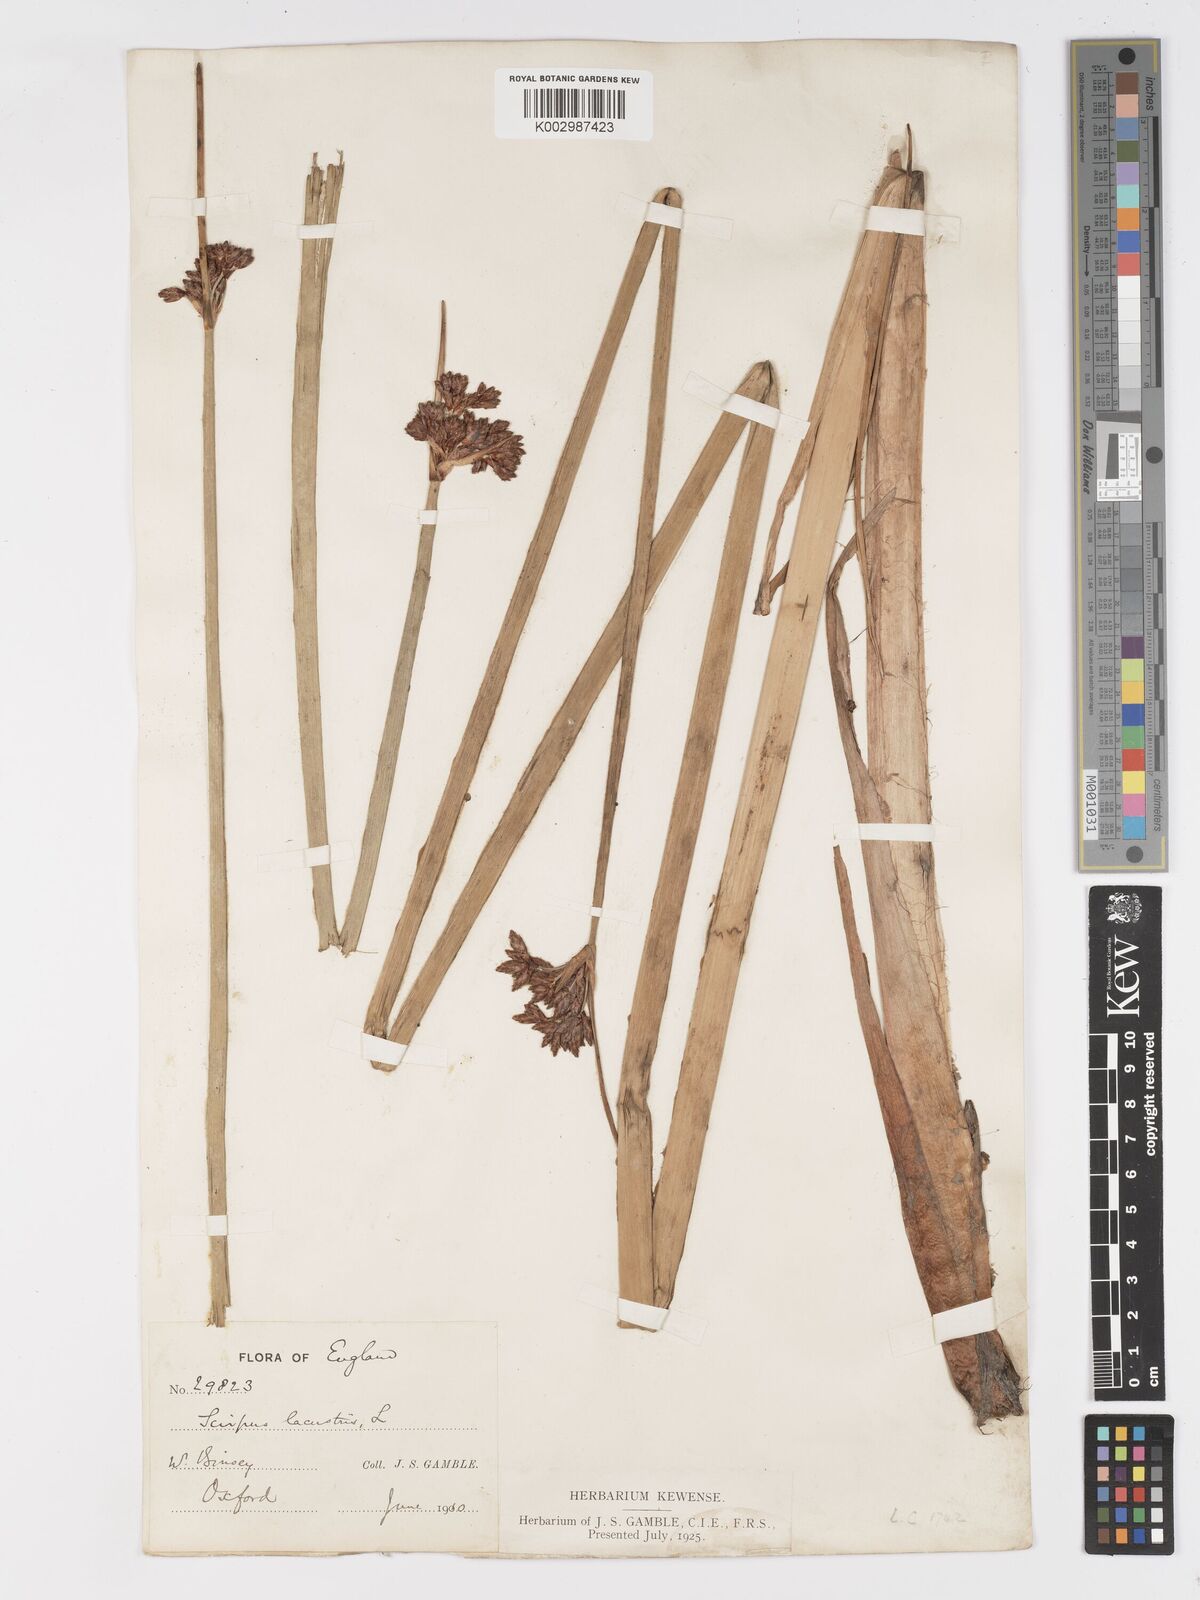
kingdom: Plantae
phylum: Tracheophyta
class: Liliopsida
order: Poales
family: Cyperaceae
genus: Schoenoplectus
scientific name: Schoenoplectus lacustris
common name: Common club-rush
